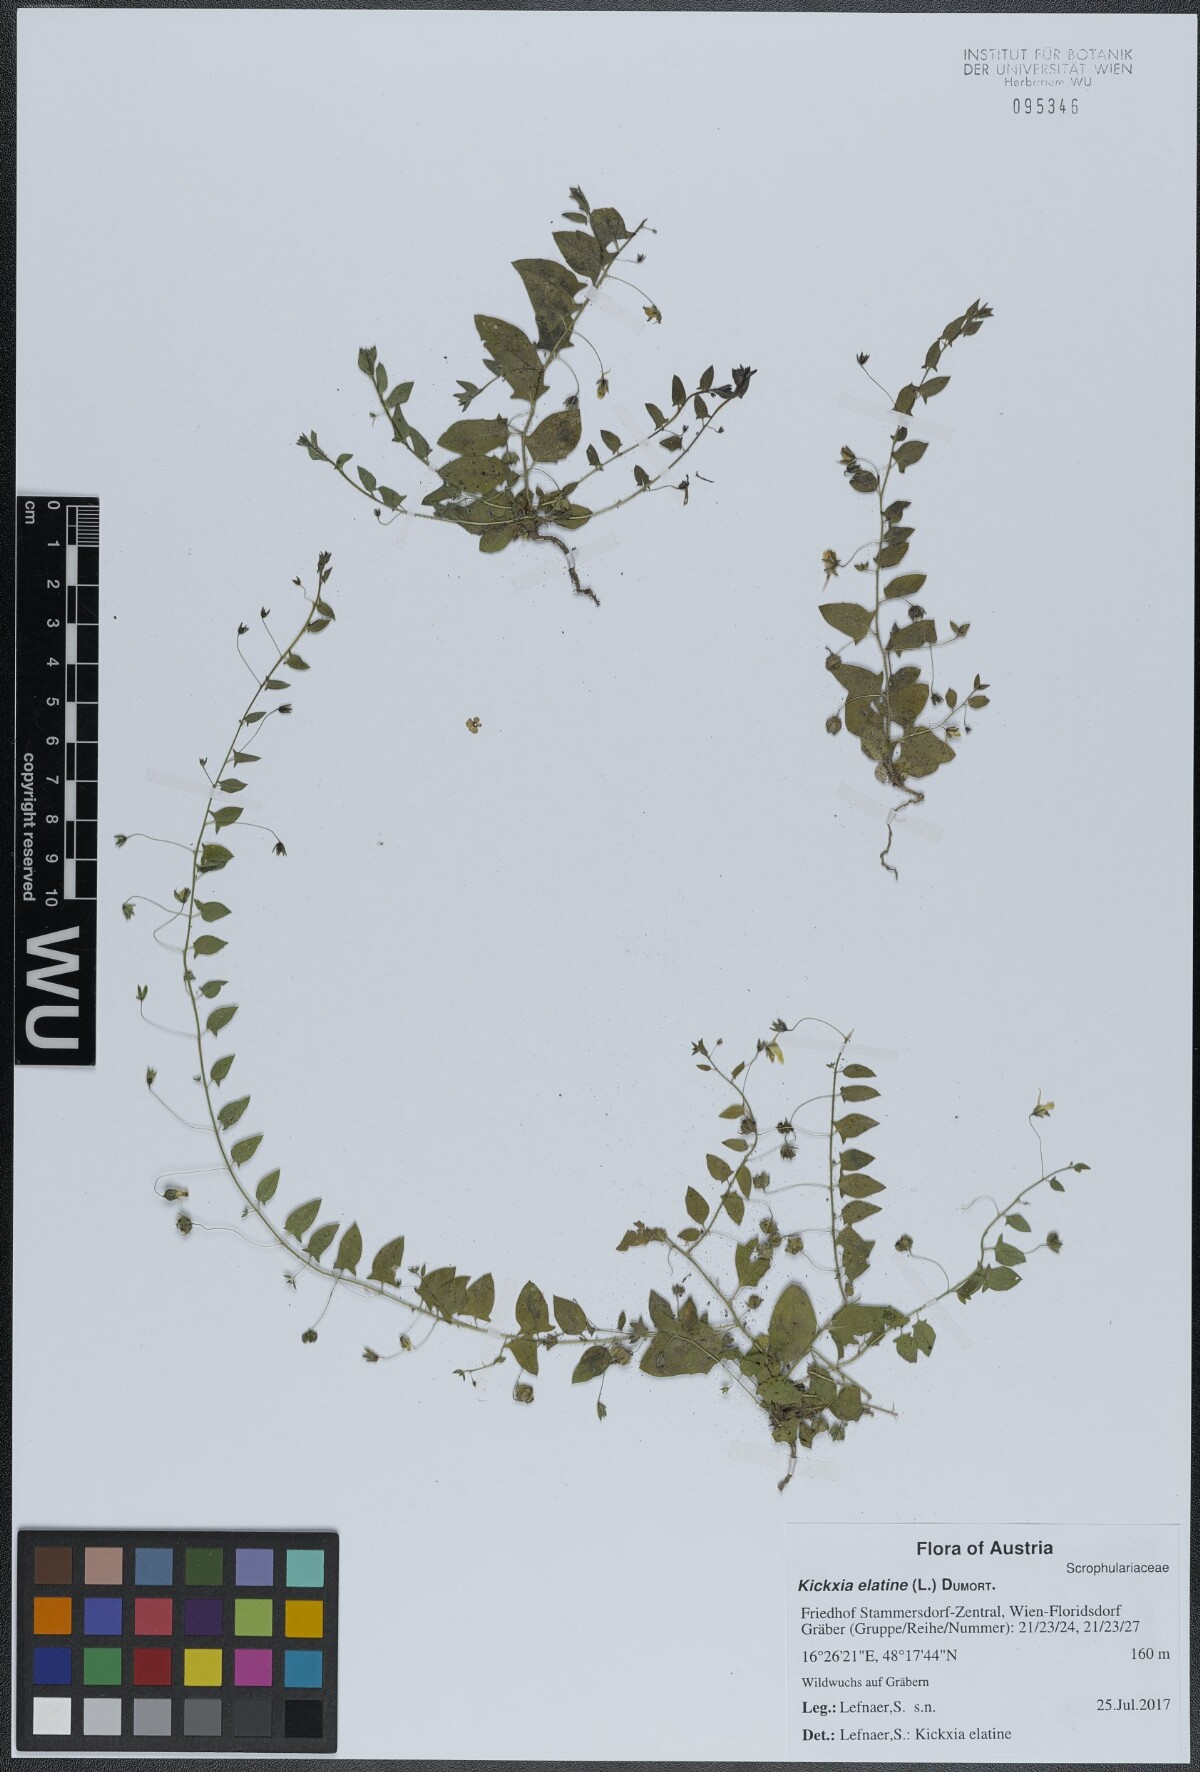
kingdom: Plantae
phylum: Tracheophyta
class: Magnoliopsida
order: Lamiales
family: Plantaginaceae
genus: Kickxia
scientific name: Kickxia elatine
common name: Sharp-leaved fluellen
